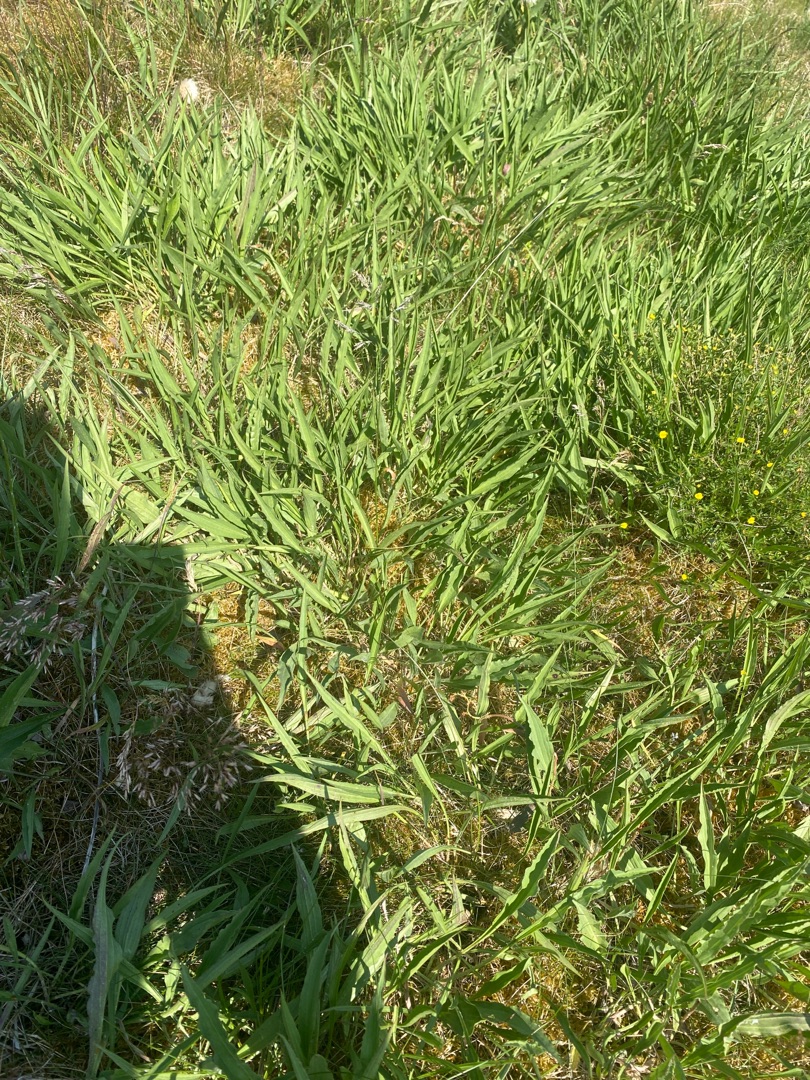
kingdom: Plantae
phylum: Tracheophyta
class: Magnoliopsida
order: Asterales
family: Asteraceae
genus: Scorzonera
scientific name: Scorzonera humilis
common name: Lav skorsoner
